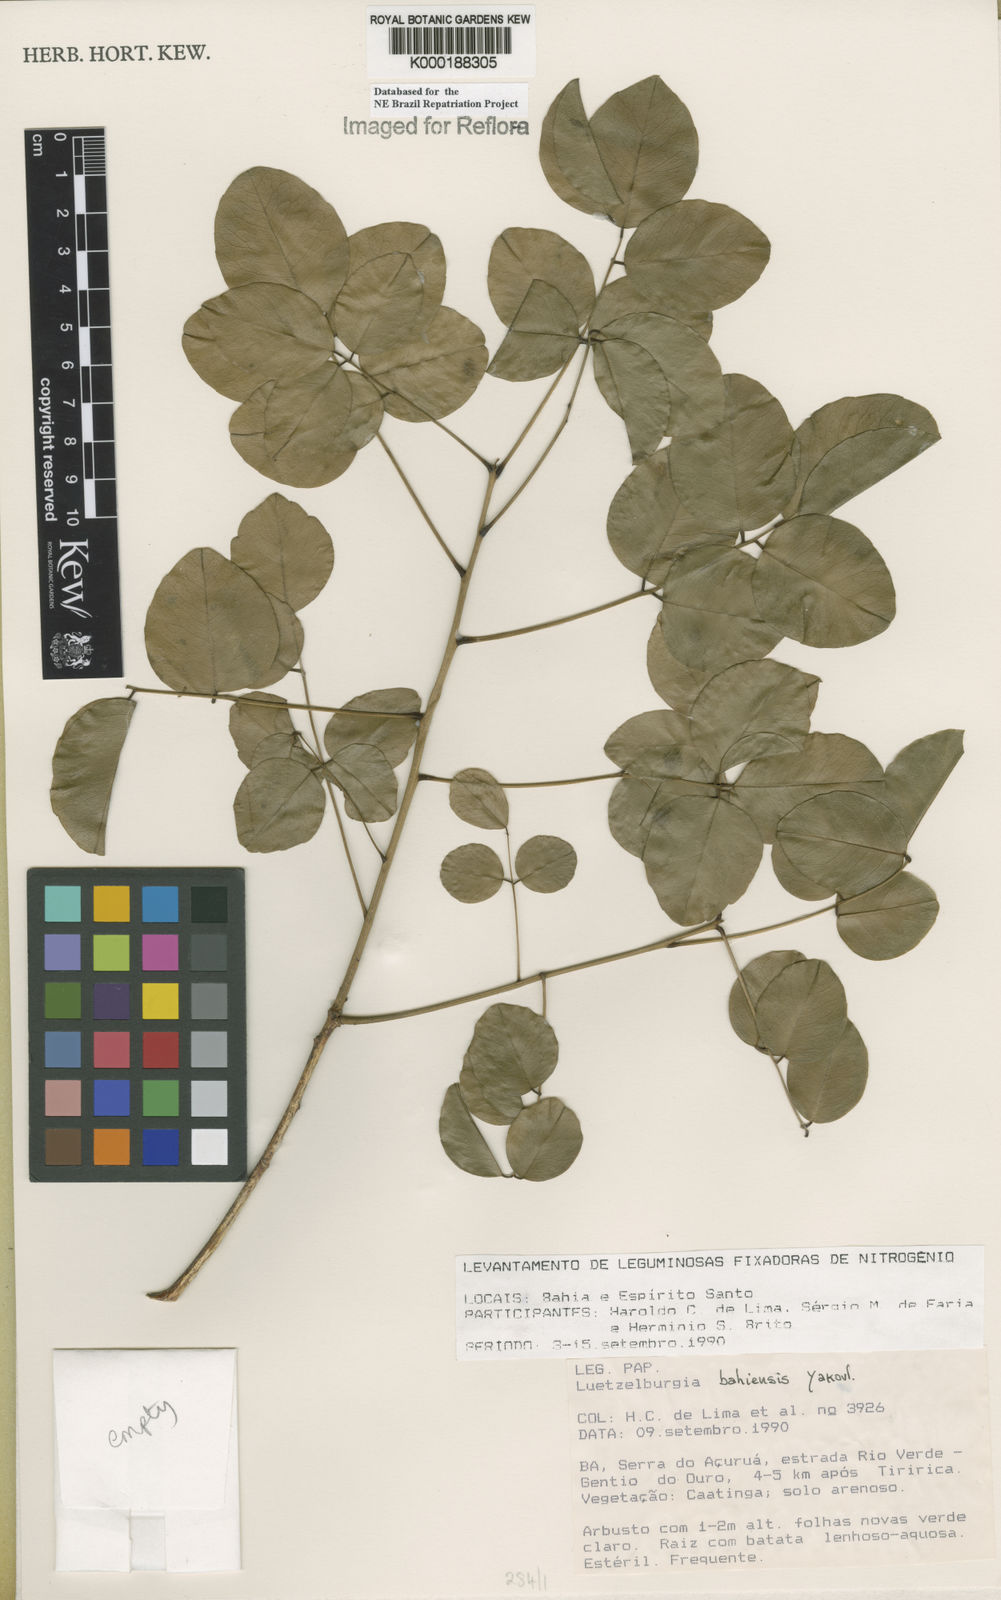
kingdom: Plantae
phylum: Tracheophyta
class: Magnoliopsida
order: Fabales
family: Fabaceae
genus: Luetzelburgia
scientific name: Luetzelburgia bahiensis
